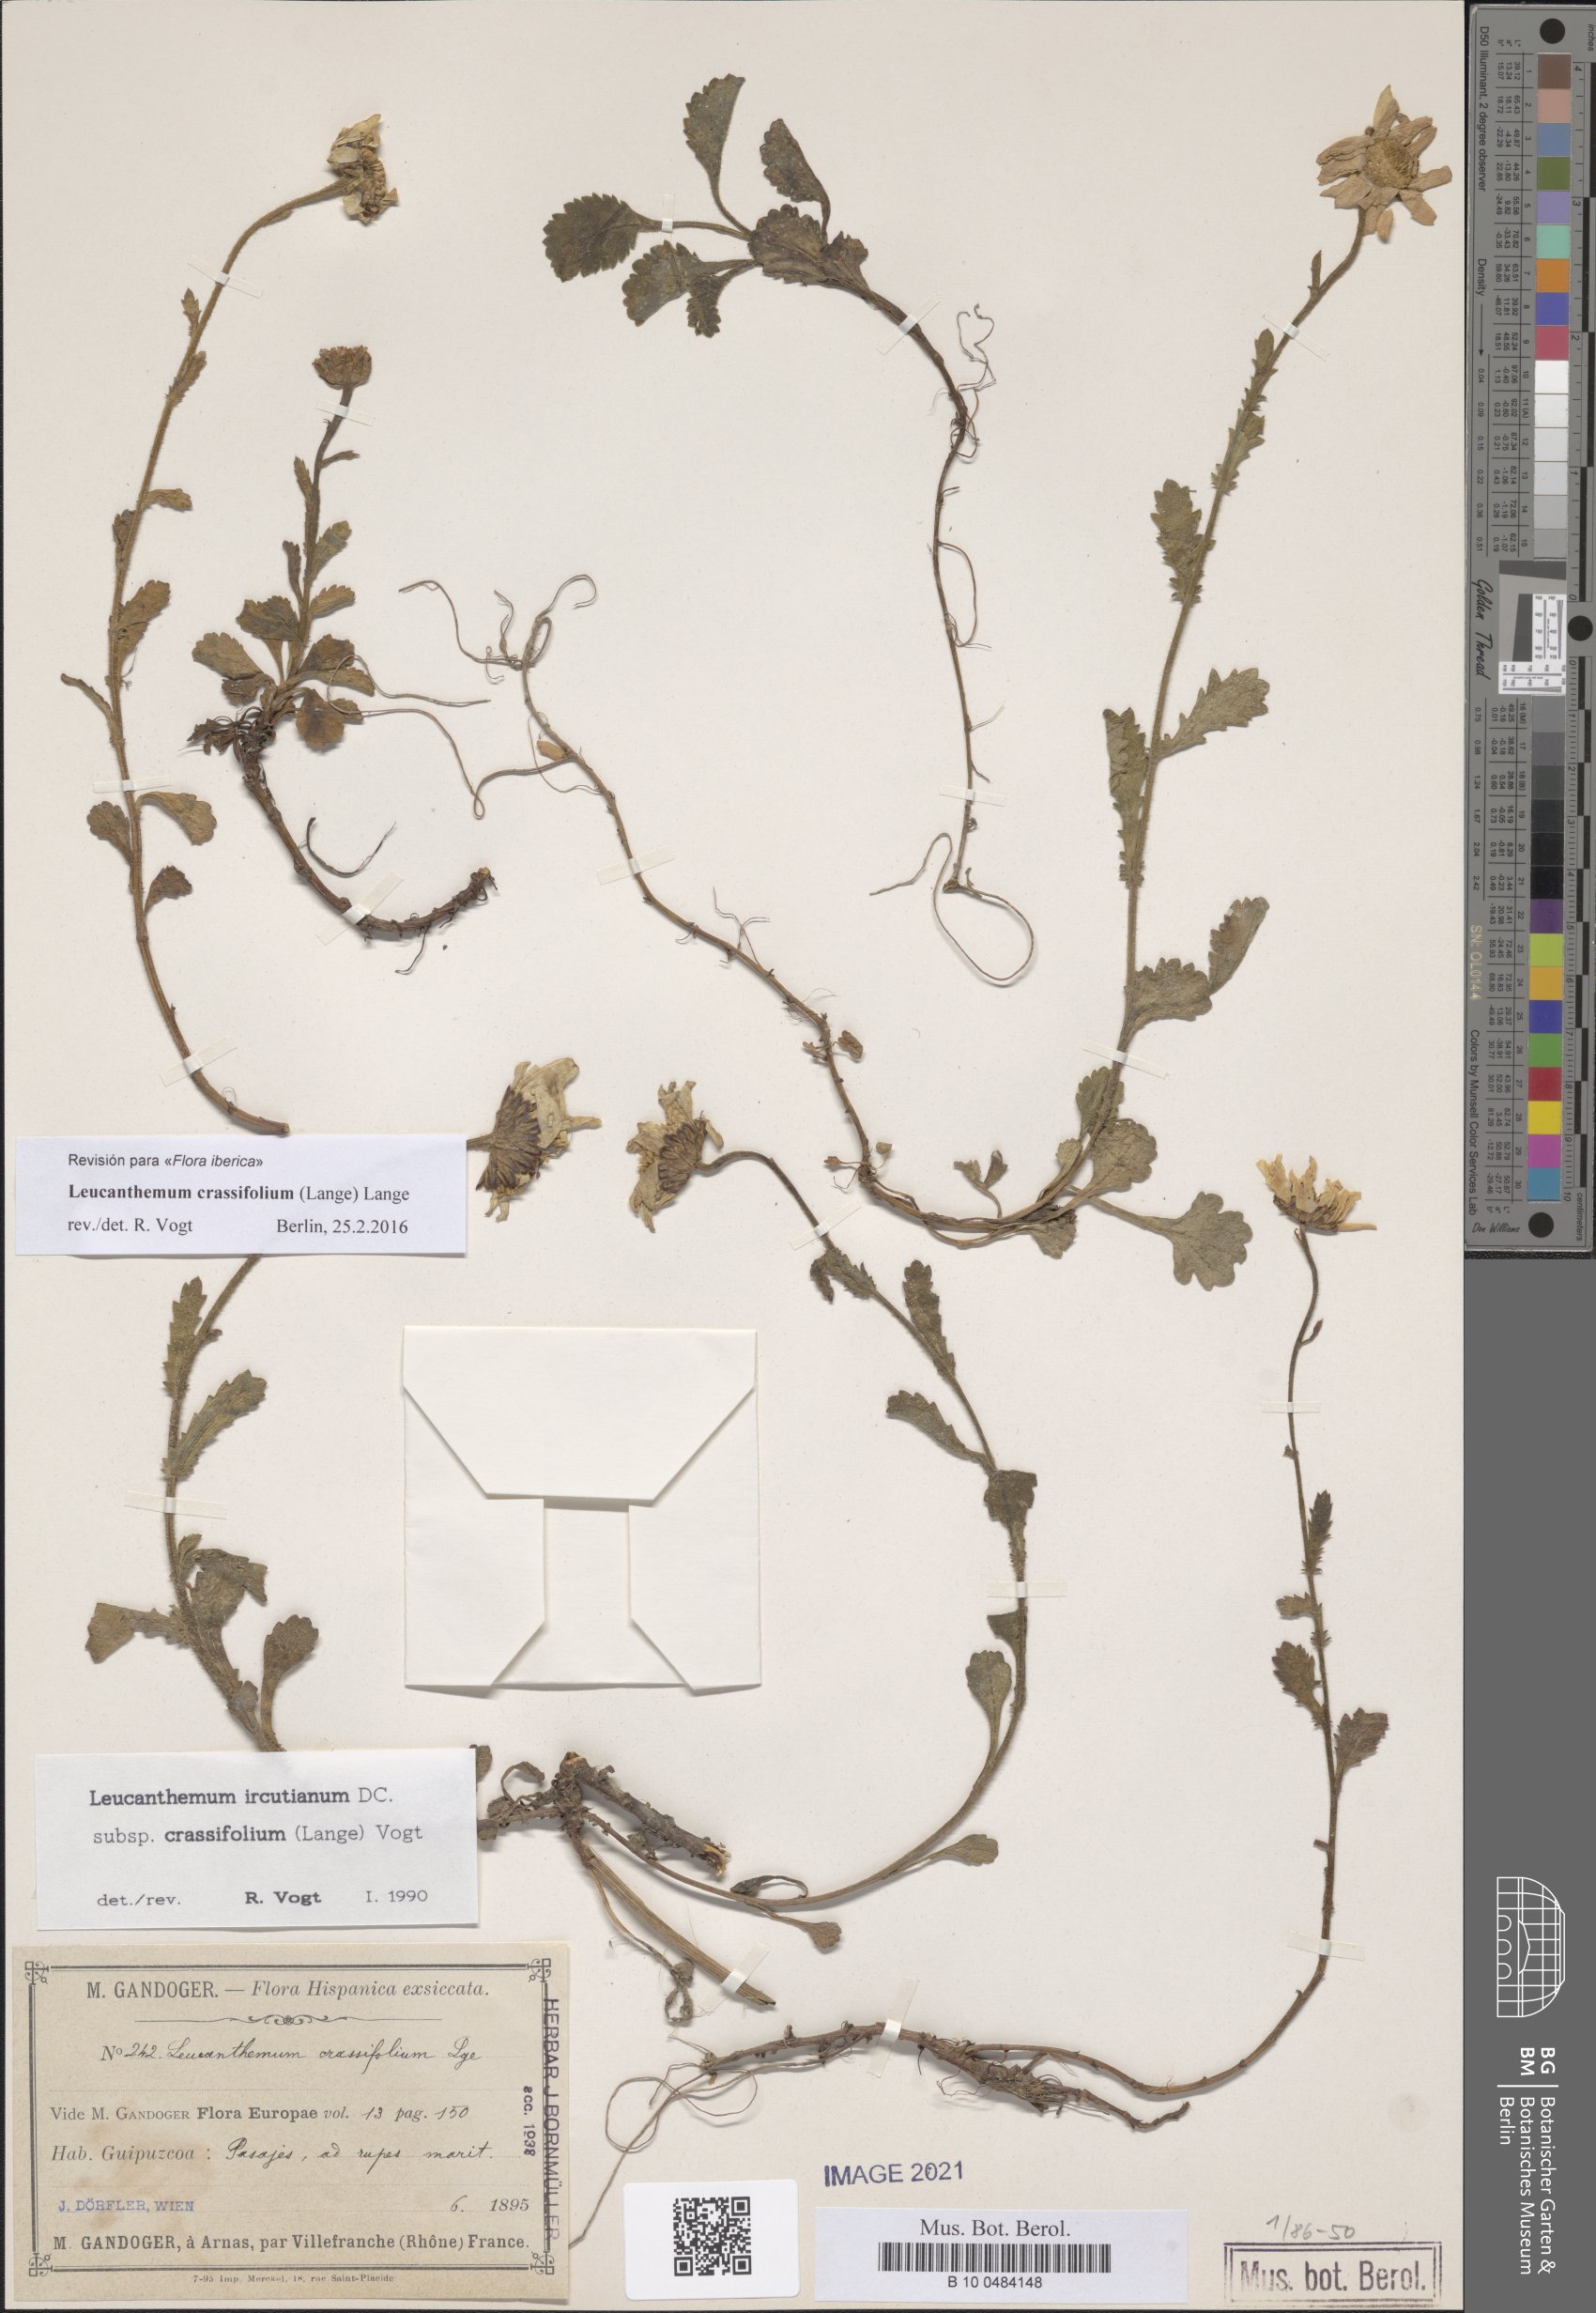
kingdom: Plantae
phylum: Tracheophyta
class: Magnoliopsida
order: Asterales
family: Asteraceae
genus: Leucanthemum
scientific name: Leucanthemum crassifolium
